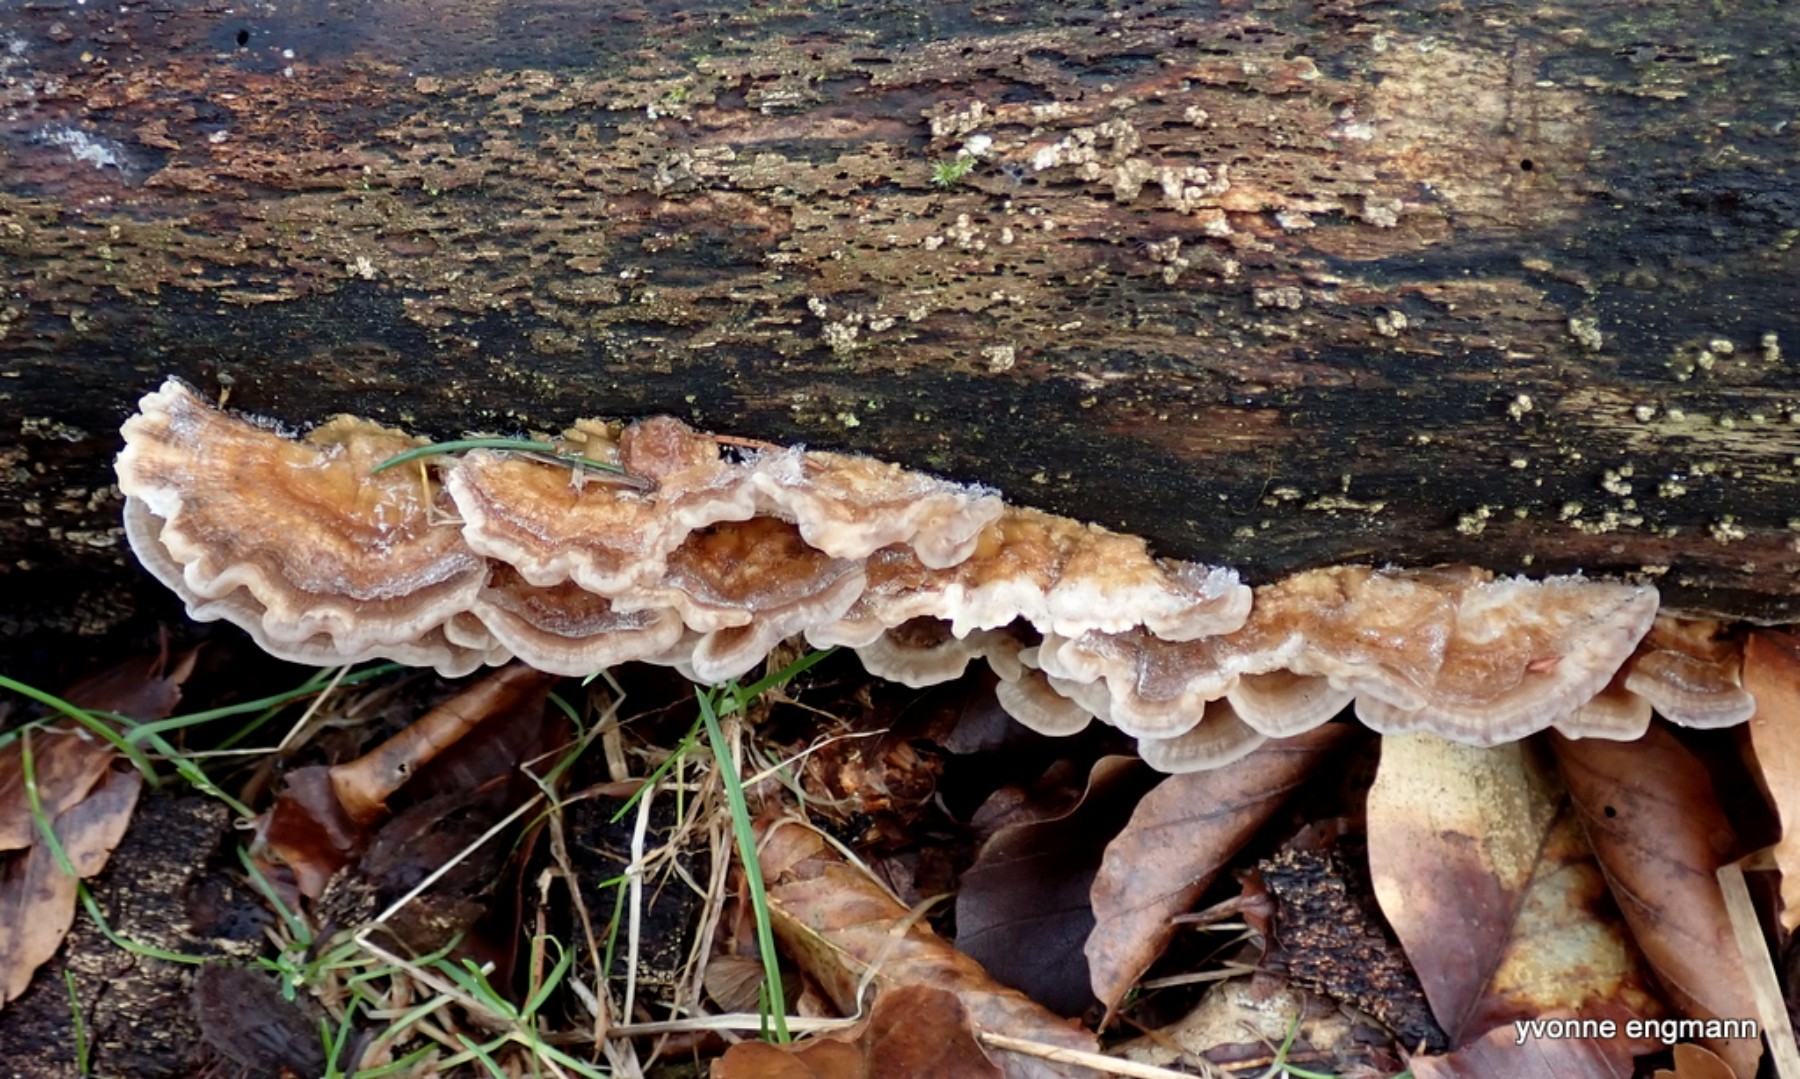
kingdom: Fungi
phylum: Basidiomycota
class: Agaricomycetes
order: Polyporales
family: Polyporaceae
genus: Trametes
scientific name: Trametes versicolor
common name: broget læderporesvamp
